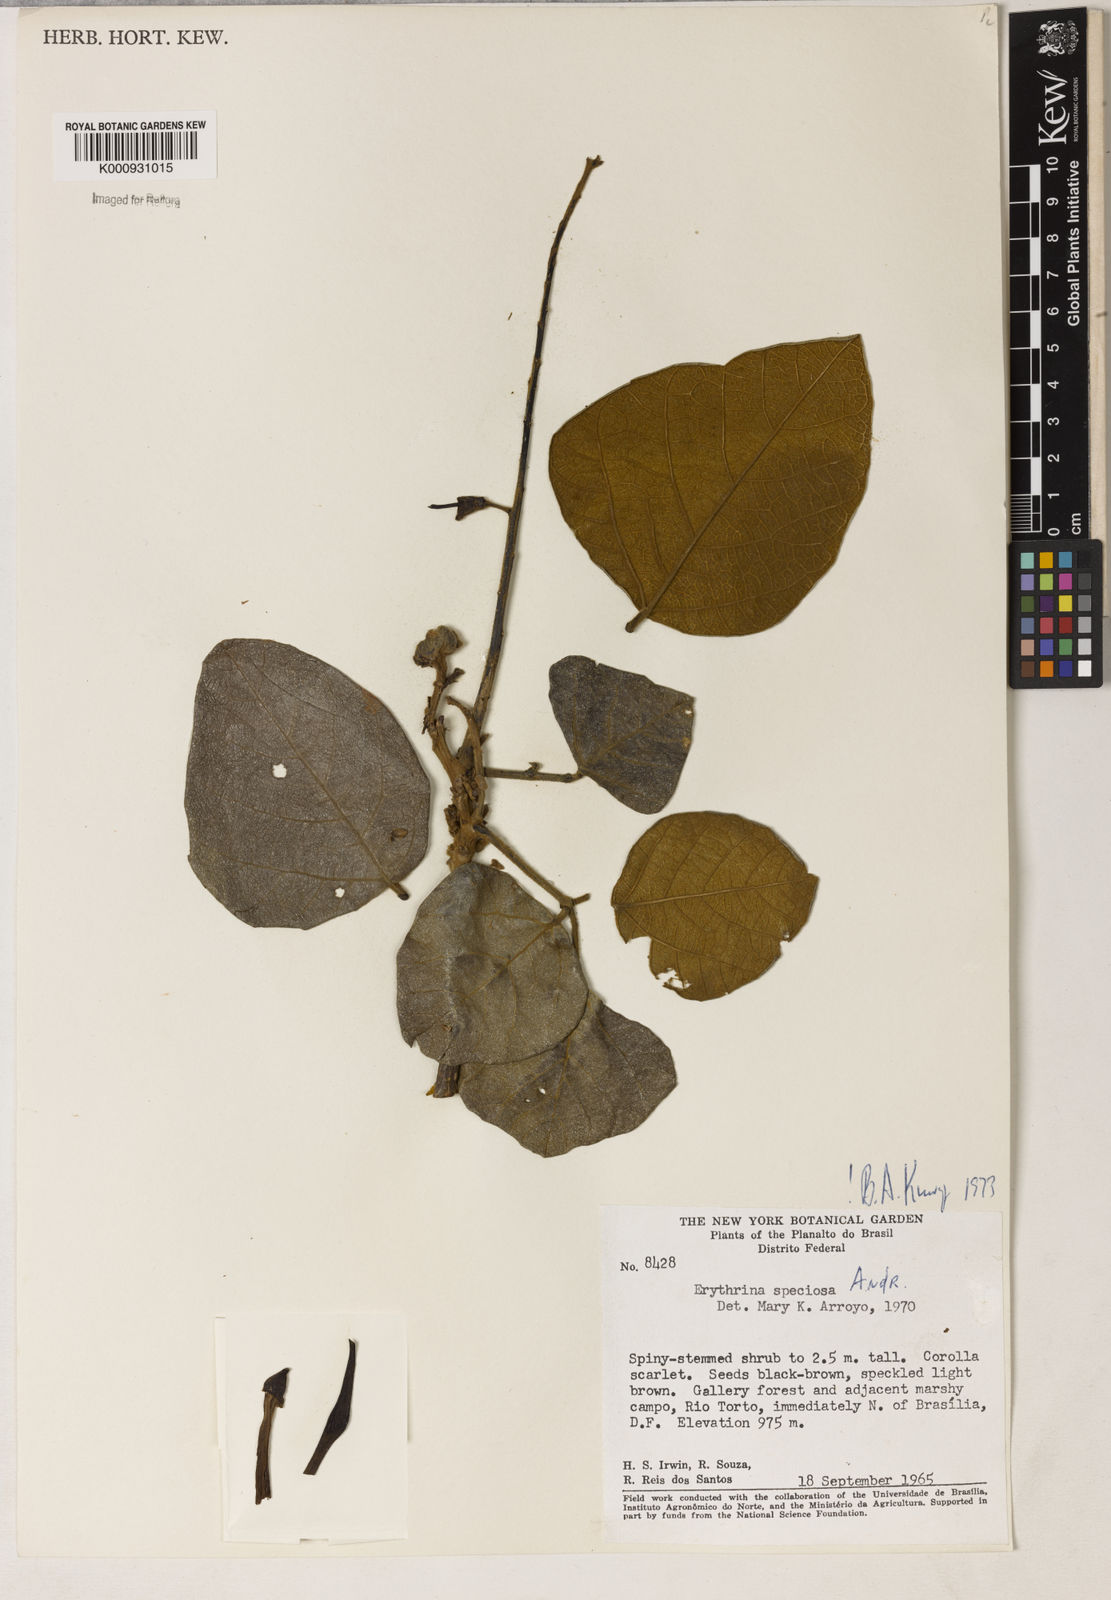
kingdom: Plantae
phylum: Tracheophyta
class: Magnoliopsida
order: Fabales
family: Fabaceae
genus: Erythrina
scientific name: Erythrina speciosa
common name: Coral tree
